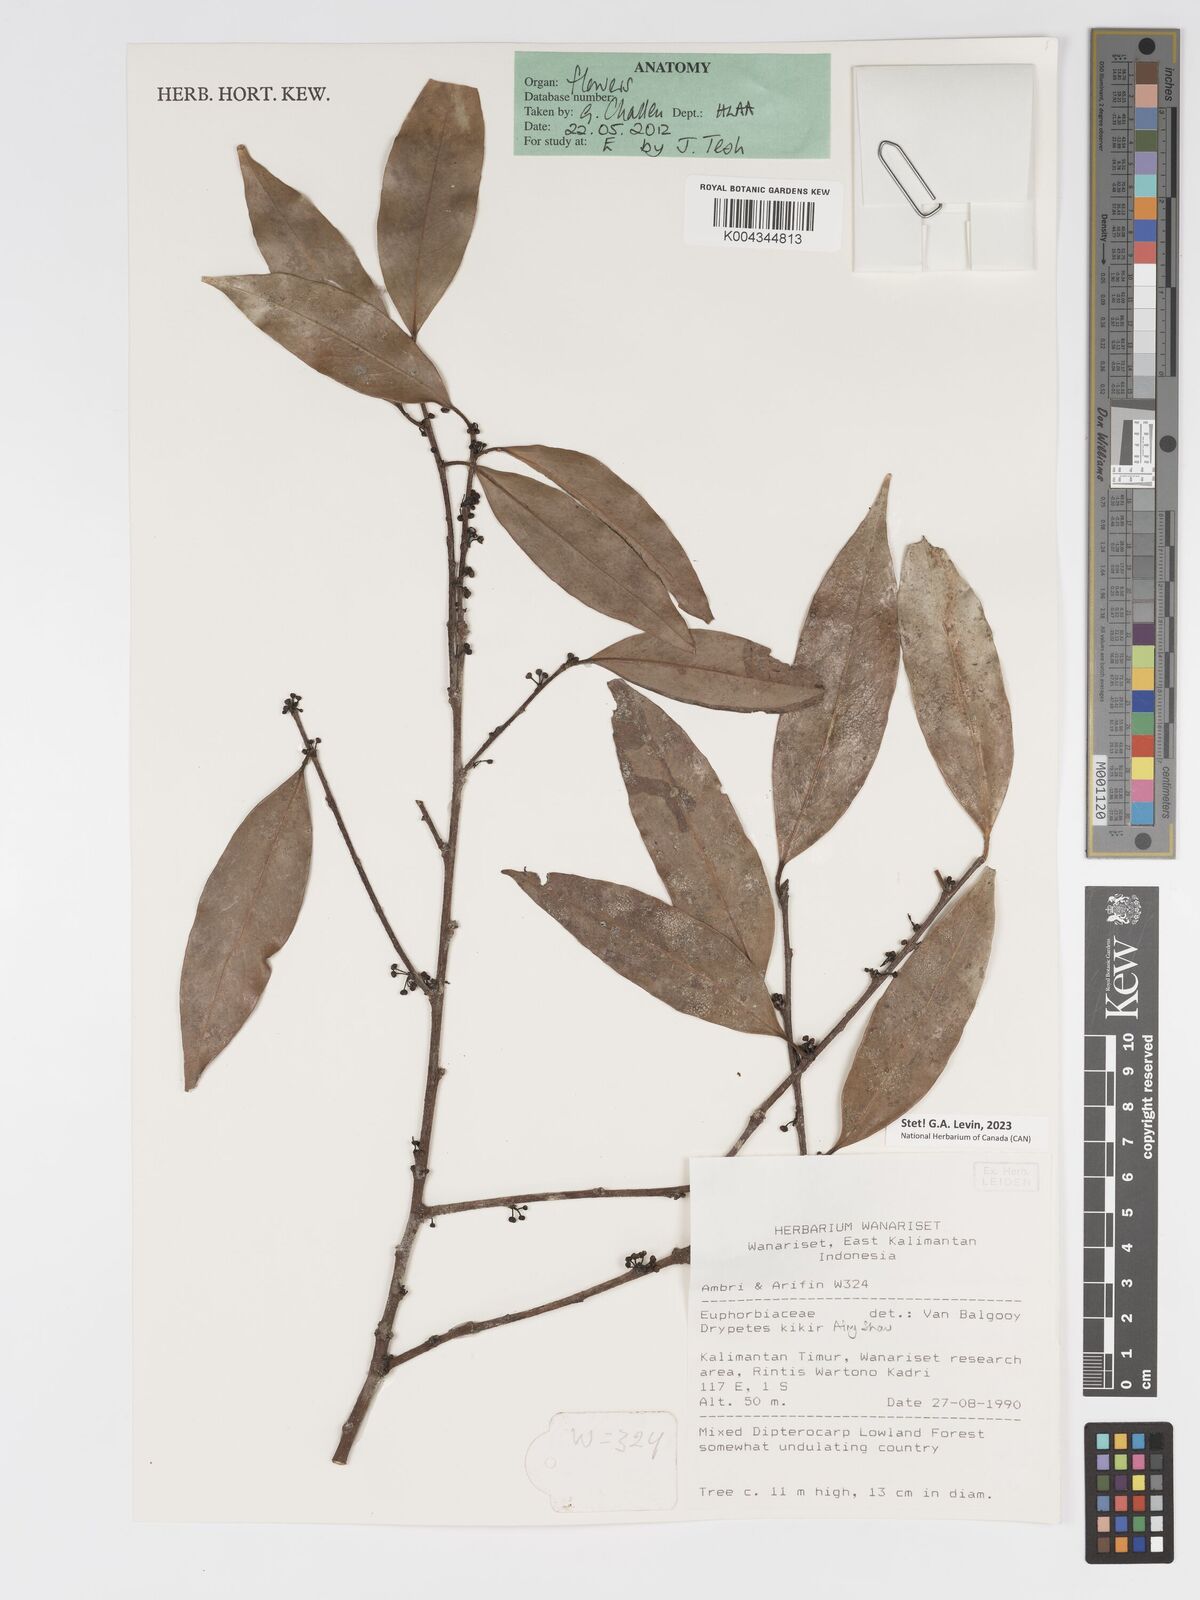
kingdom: Plantae
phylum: Tracheophyta
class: Magnoliopsida
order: Malpighiales
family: Putranjivaceae
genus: Drypetes
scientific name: Drypetes kikir
